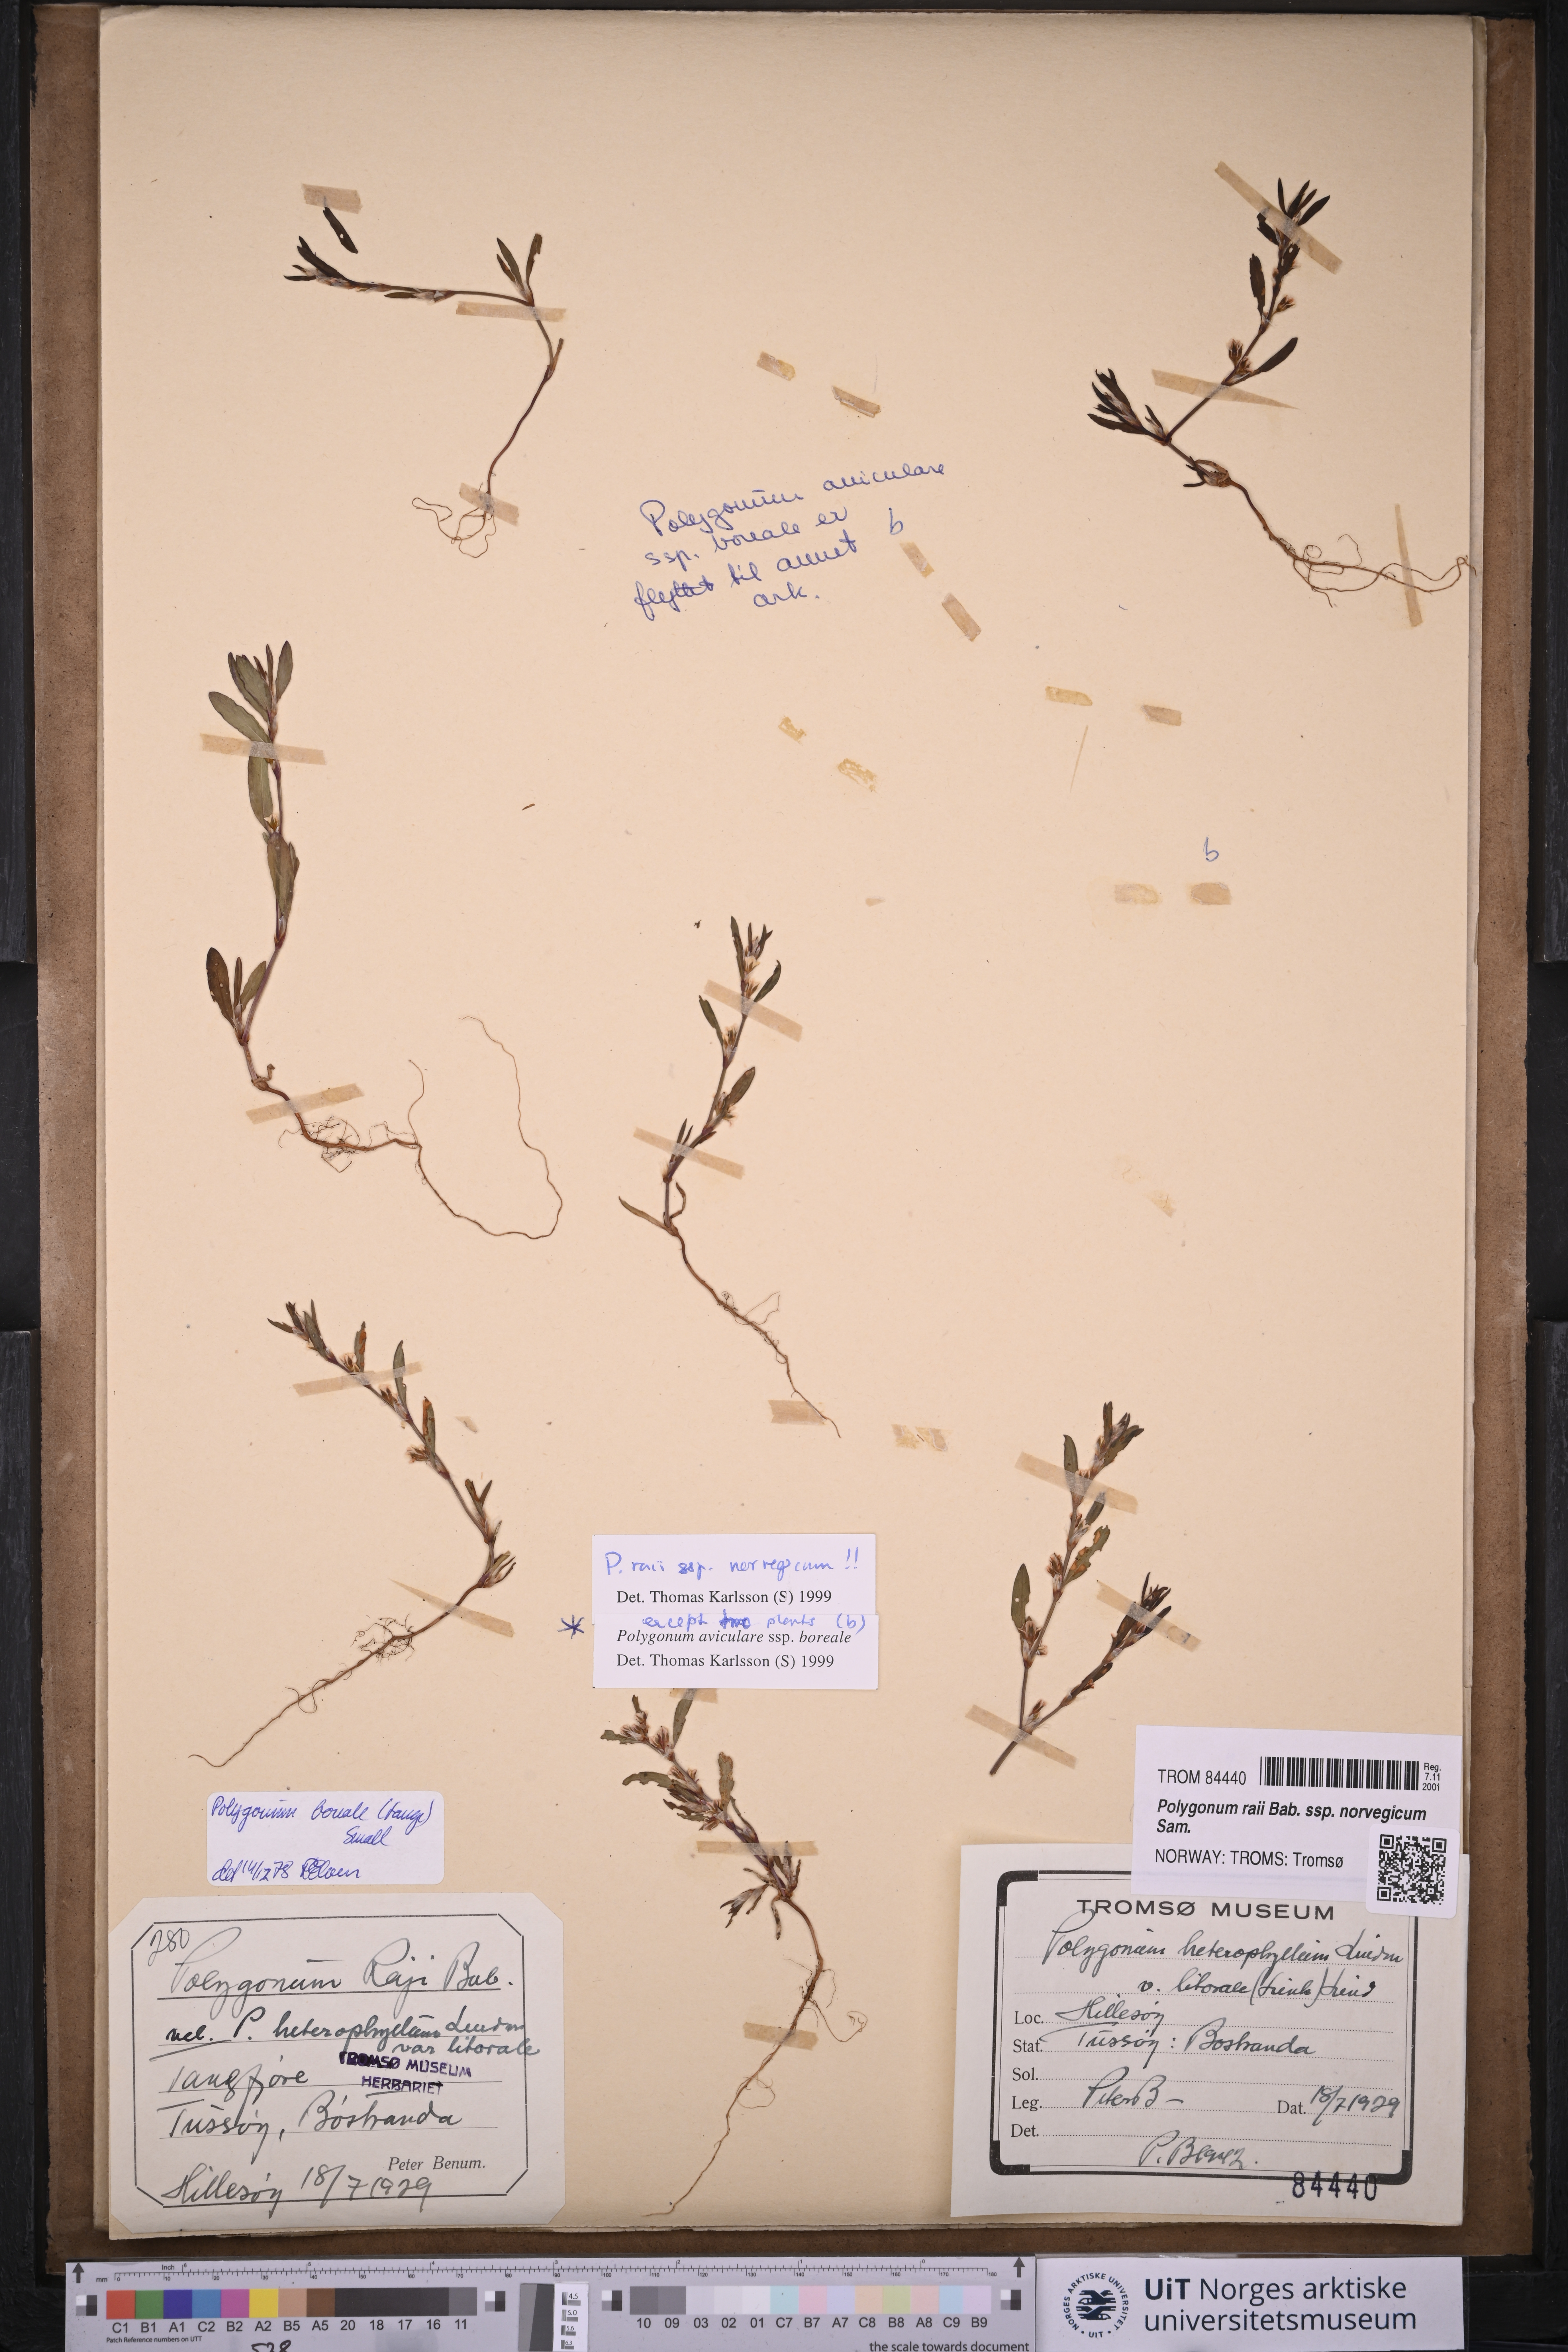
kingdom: Plantae
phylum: Tracheophyta
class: Magnoliopsida
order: Caryophyllales
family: Polygonaceae
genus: Polygonum
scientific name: Polygonum norvegicum
